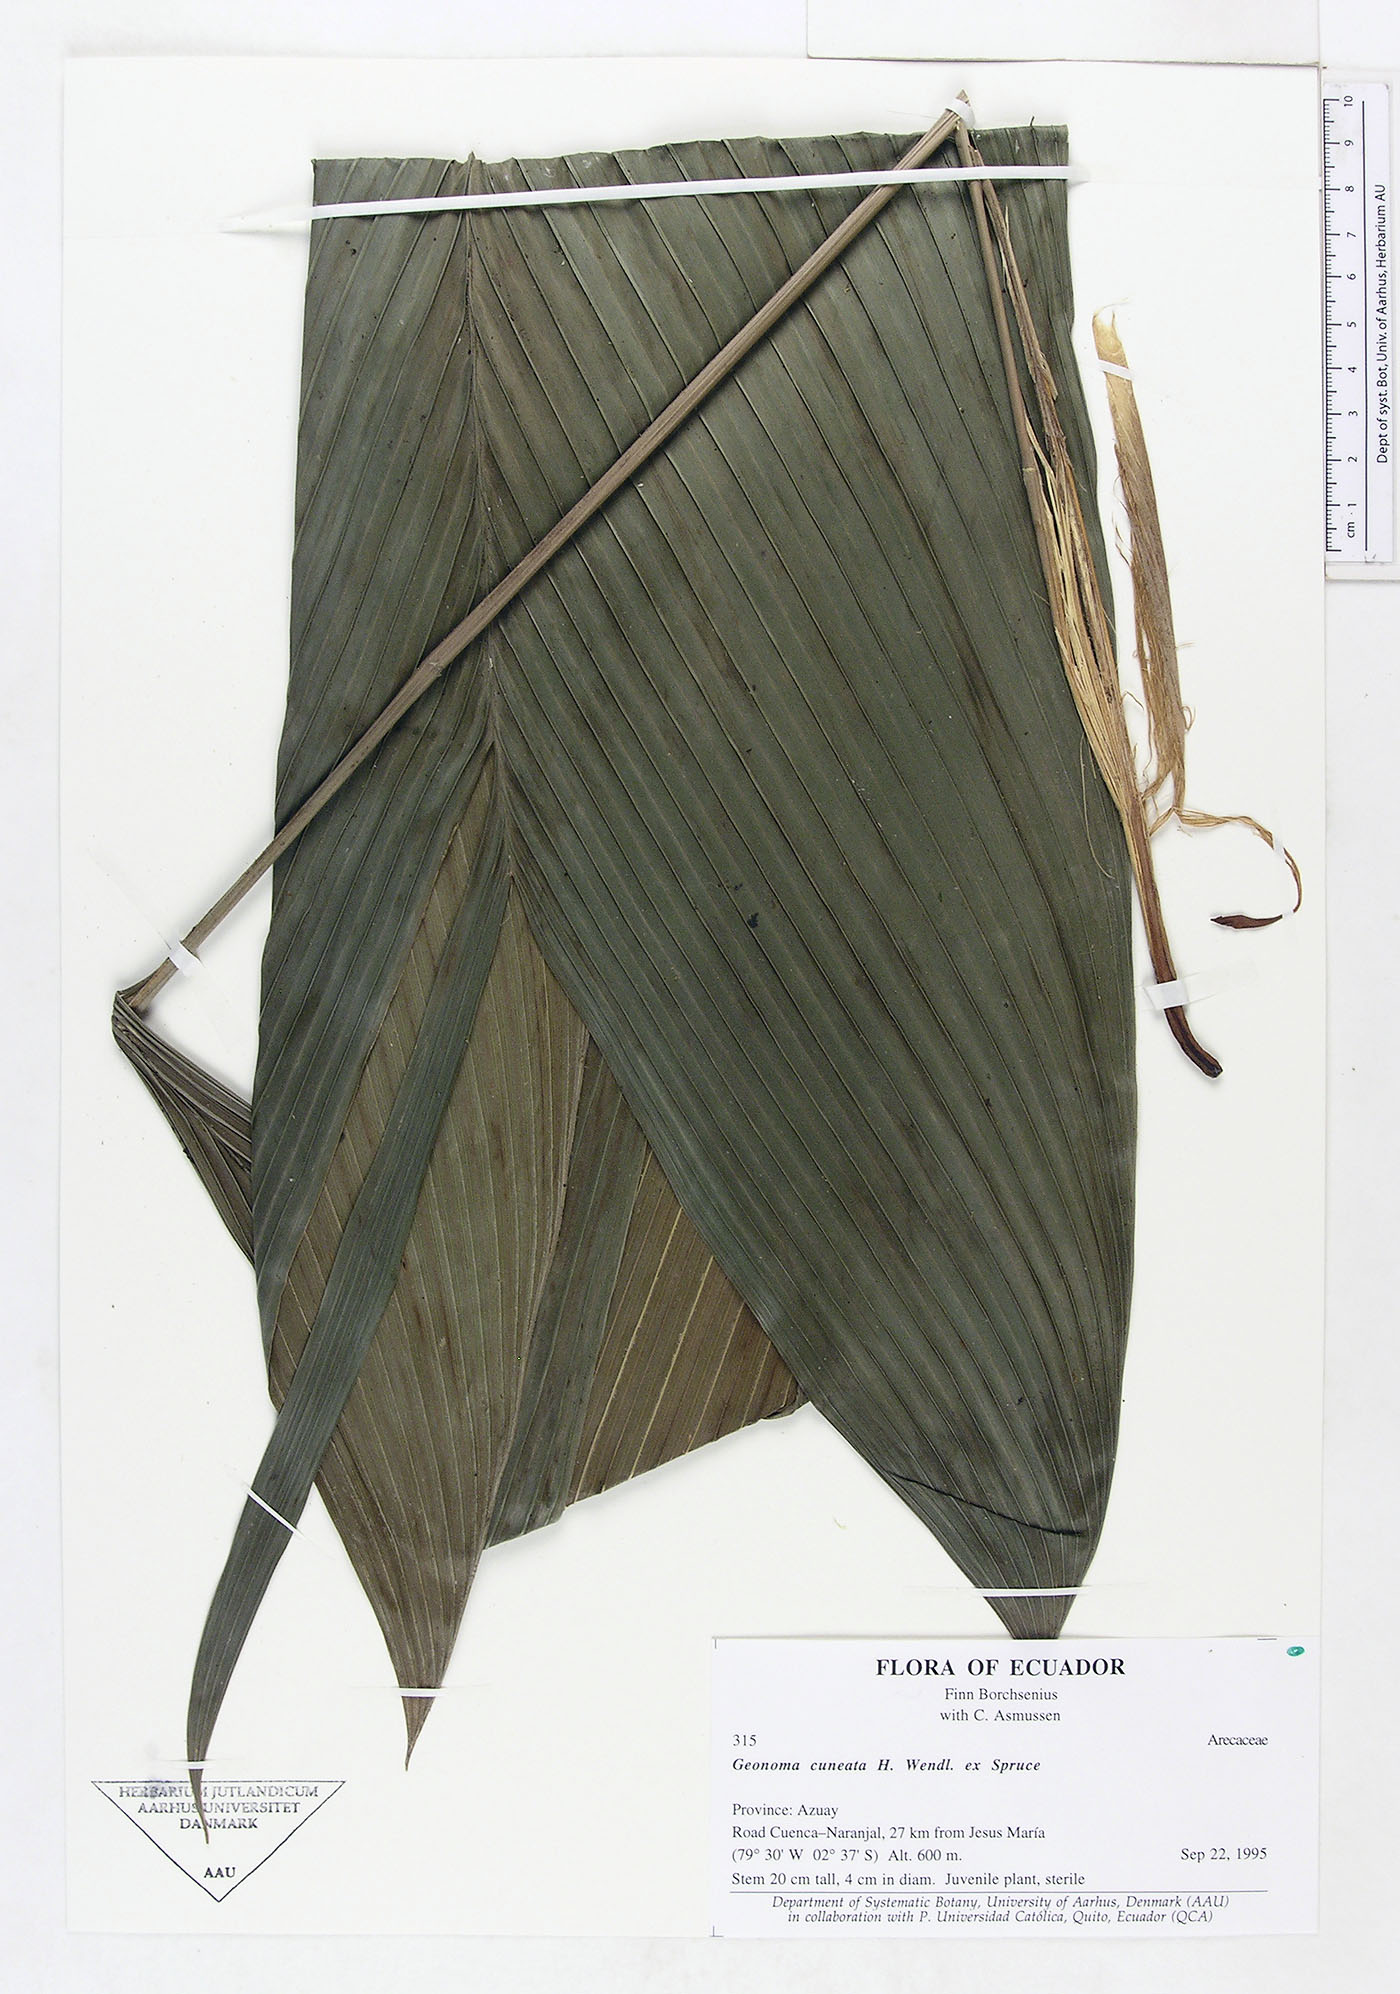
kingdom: Plantae
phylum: Tracheophyta
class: Liliopsida
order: Arecales
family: Arecaceae
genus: Geonoma
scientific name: Geonoma cuneata
